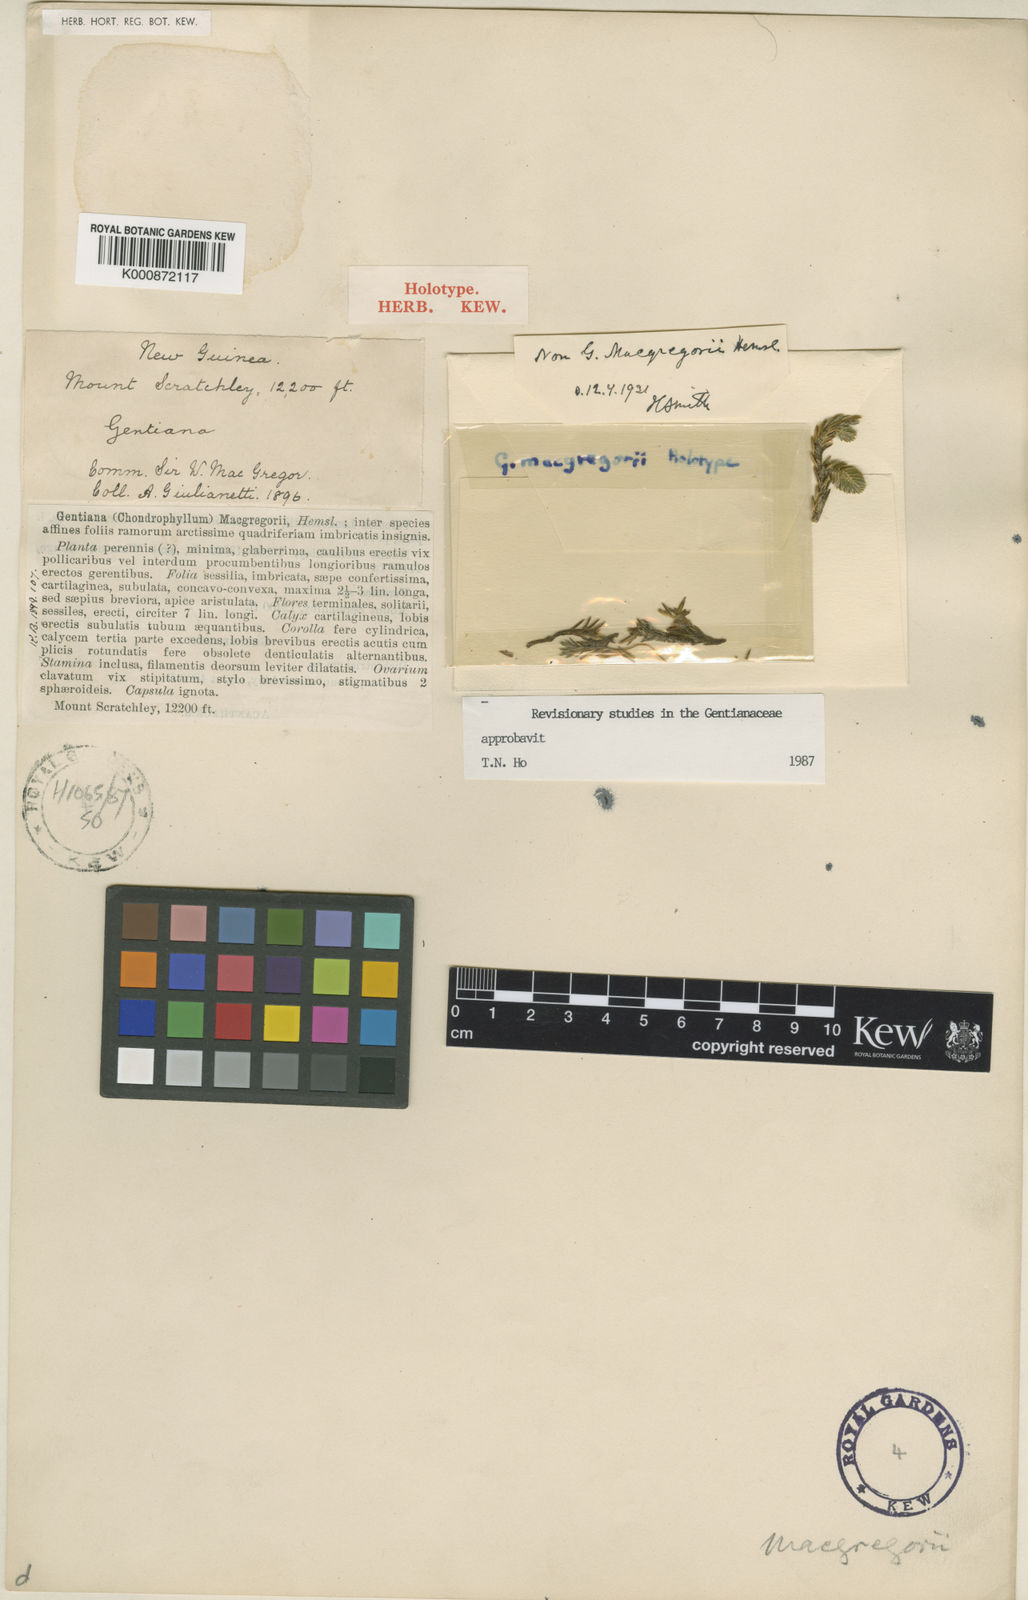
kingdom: Plantae
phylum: Tracheophyta
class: Magnoliopsida
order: Gentianales
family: Gentianaceae
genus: Gentiana
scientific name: Gentiana
